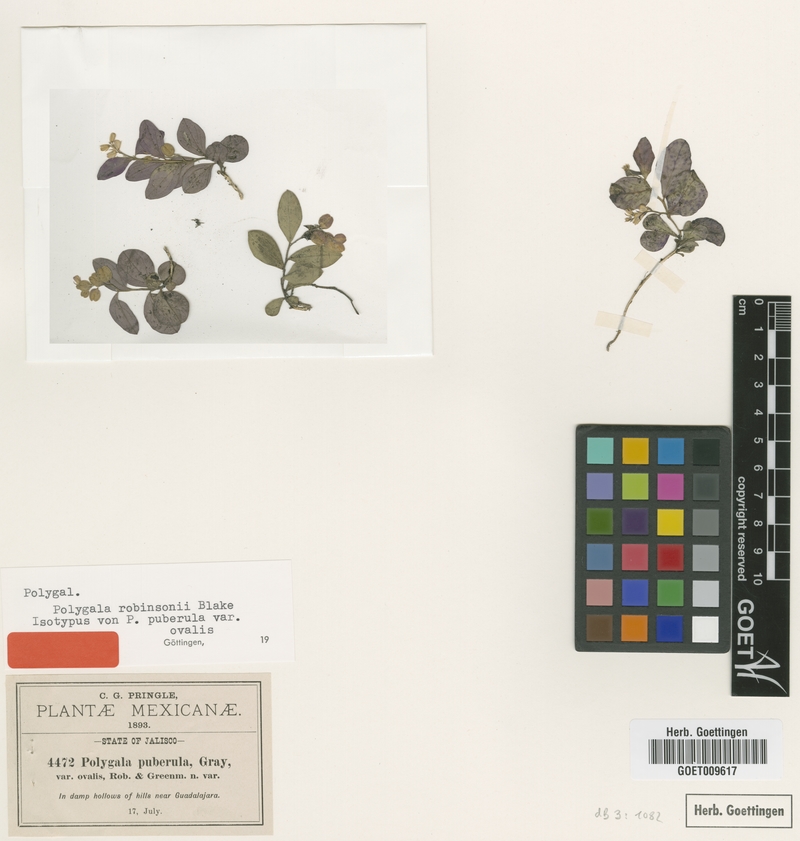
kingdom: Plantae
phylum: Tracheophyta
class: Magnoliopsida
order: Fabales
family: Polygalaceae
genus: Hebecarpa
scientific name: Hebecarpa robinsonii
